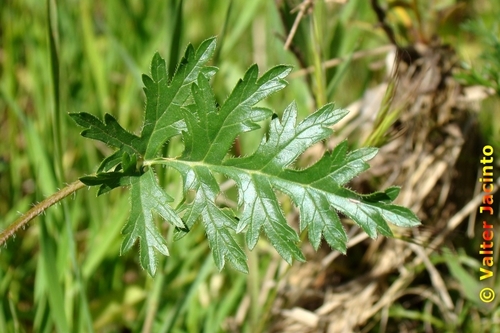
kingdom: Plantae
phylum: Tracheophyta
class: Magnoliopsida
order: Geraniales
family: Geraniaceae
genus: Erodium
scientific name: Erodium botrys
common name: Mediterranean stork's-bill
